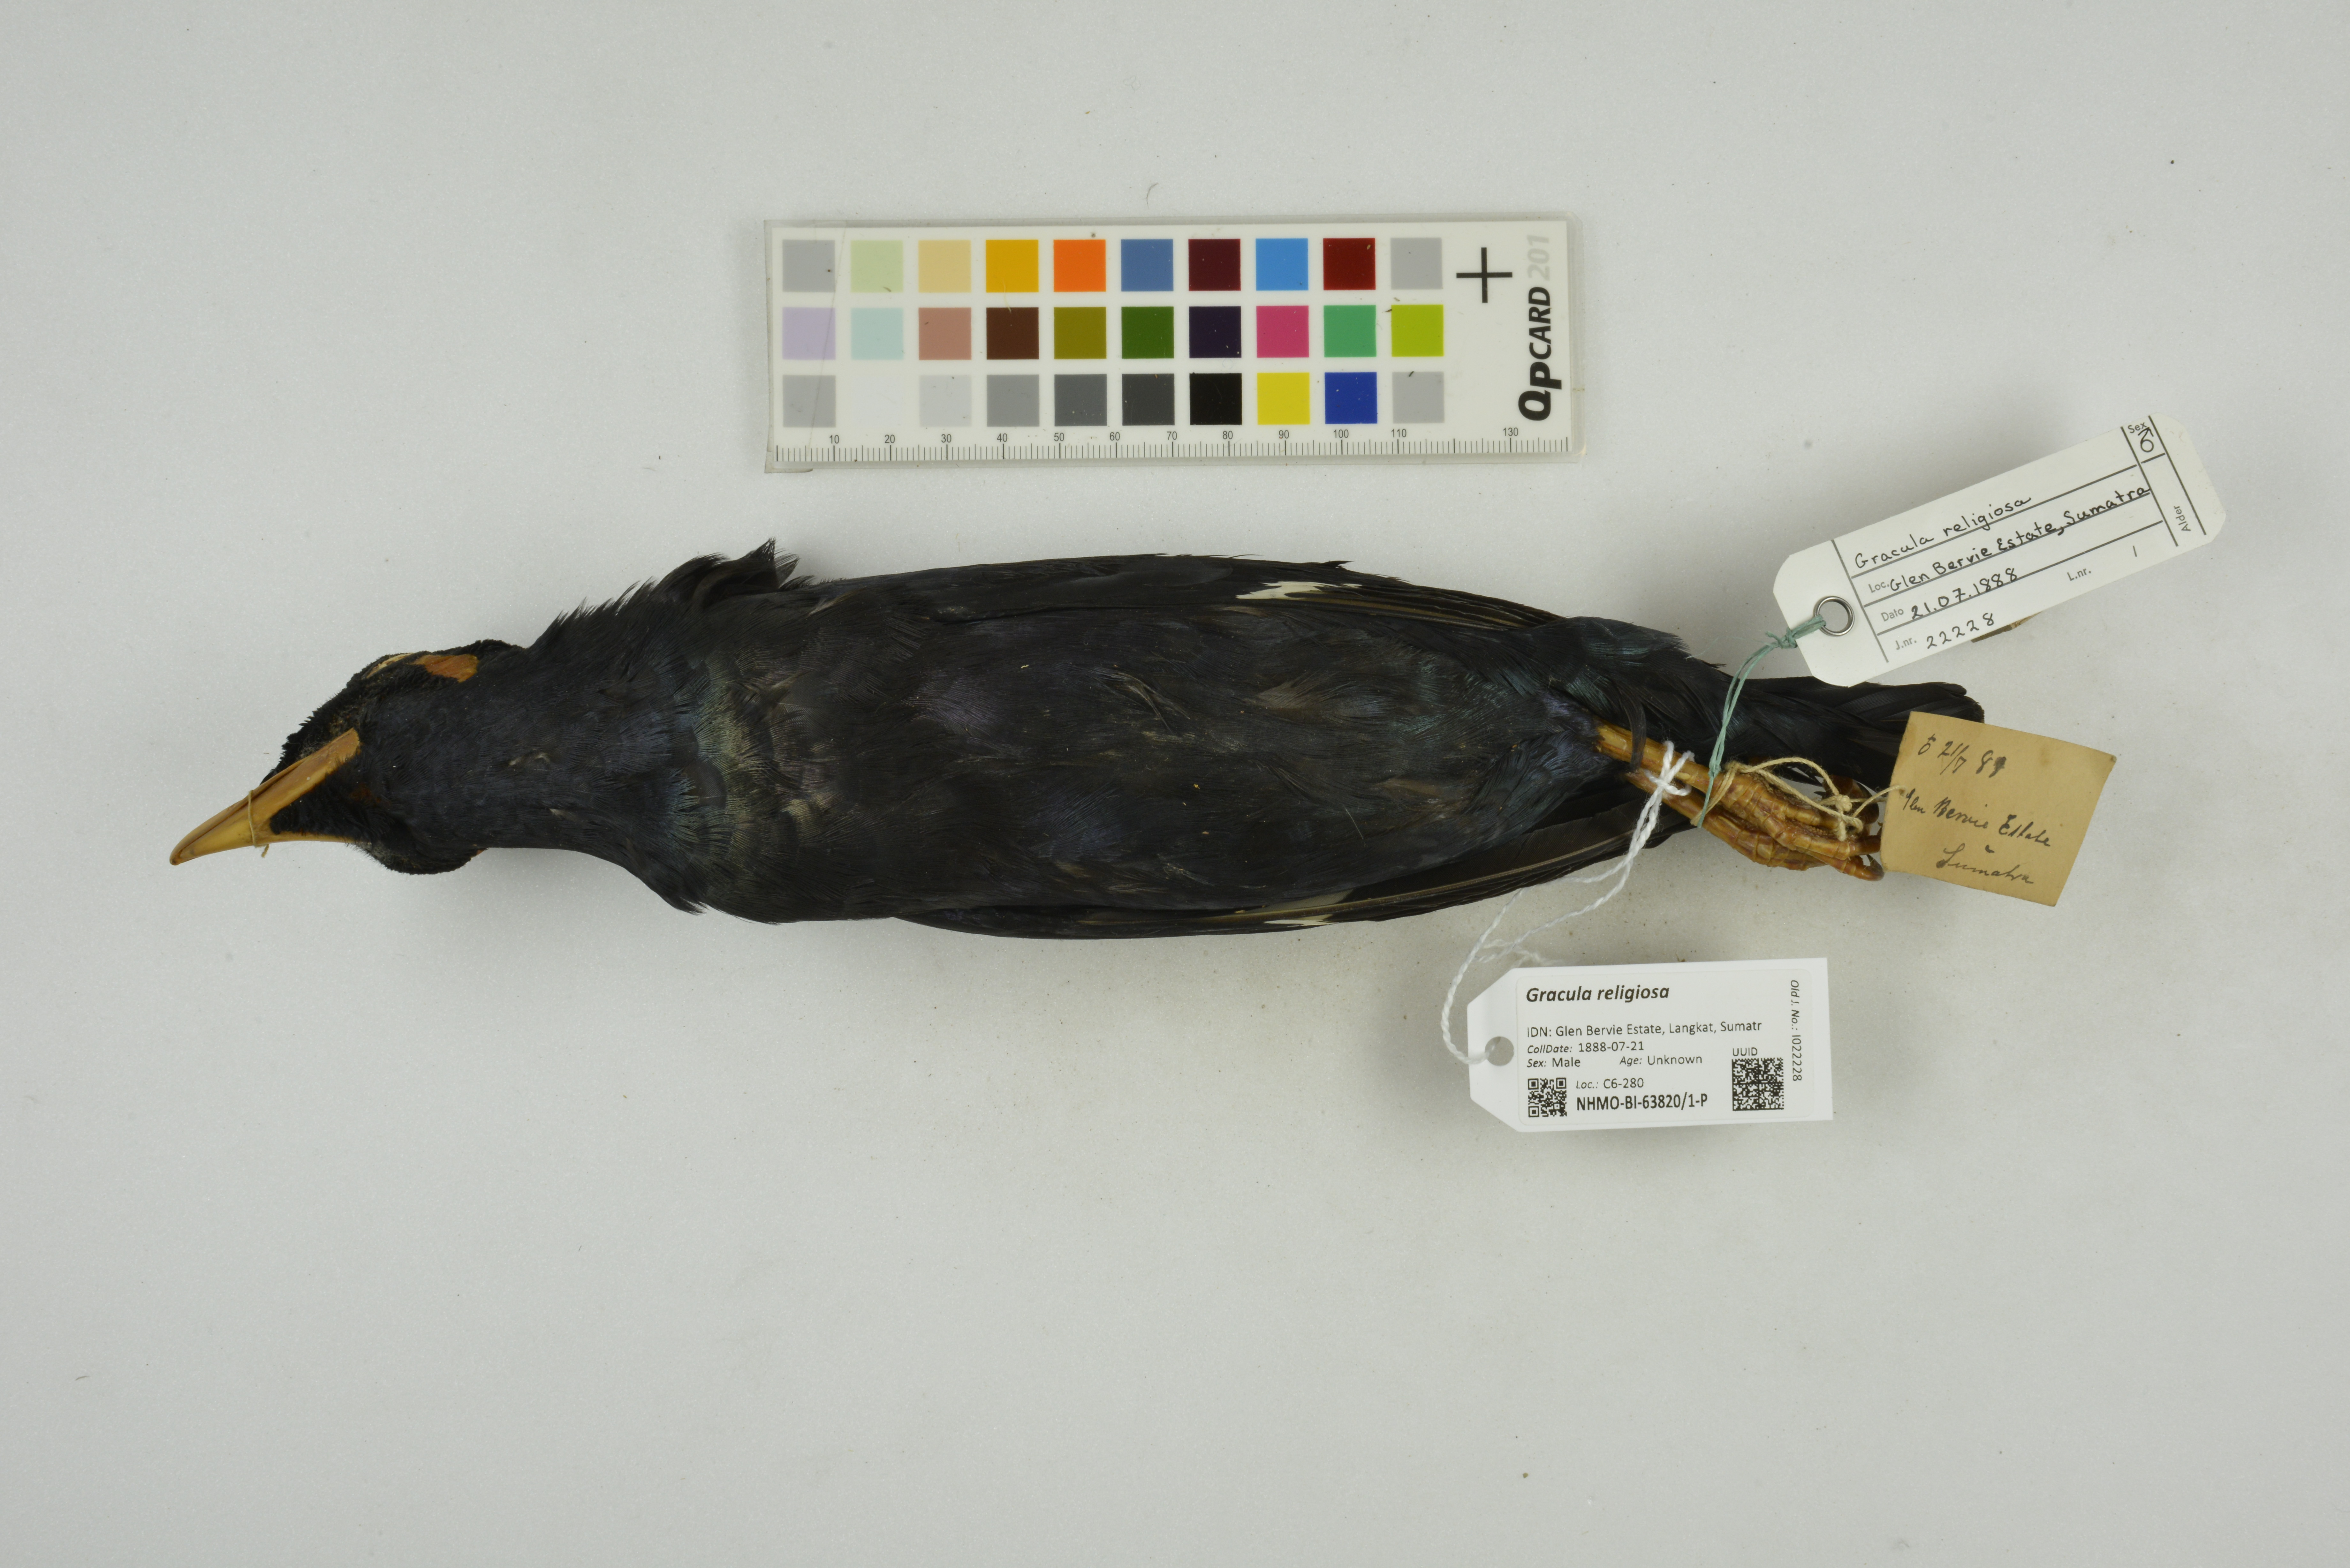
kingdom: Animalia
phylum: Chordata
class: Aves
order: Passeriformes
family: Sturnidae
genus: Gracula
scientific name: Gracula religiosa
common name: Common hill myna
